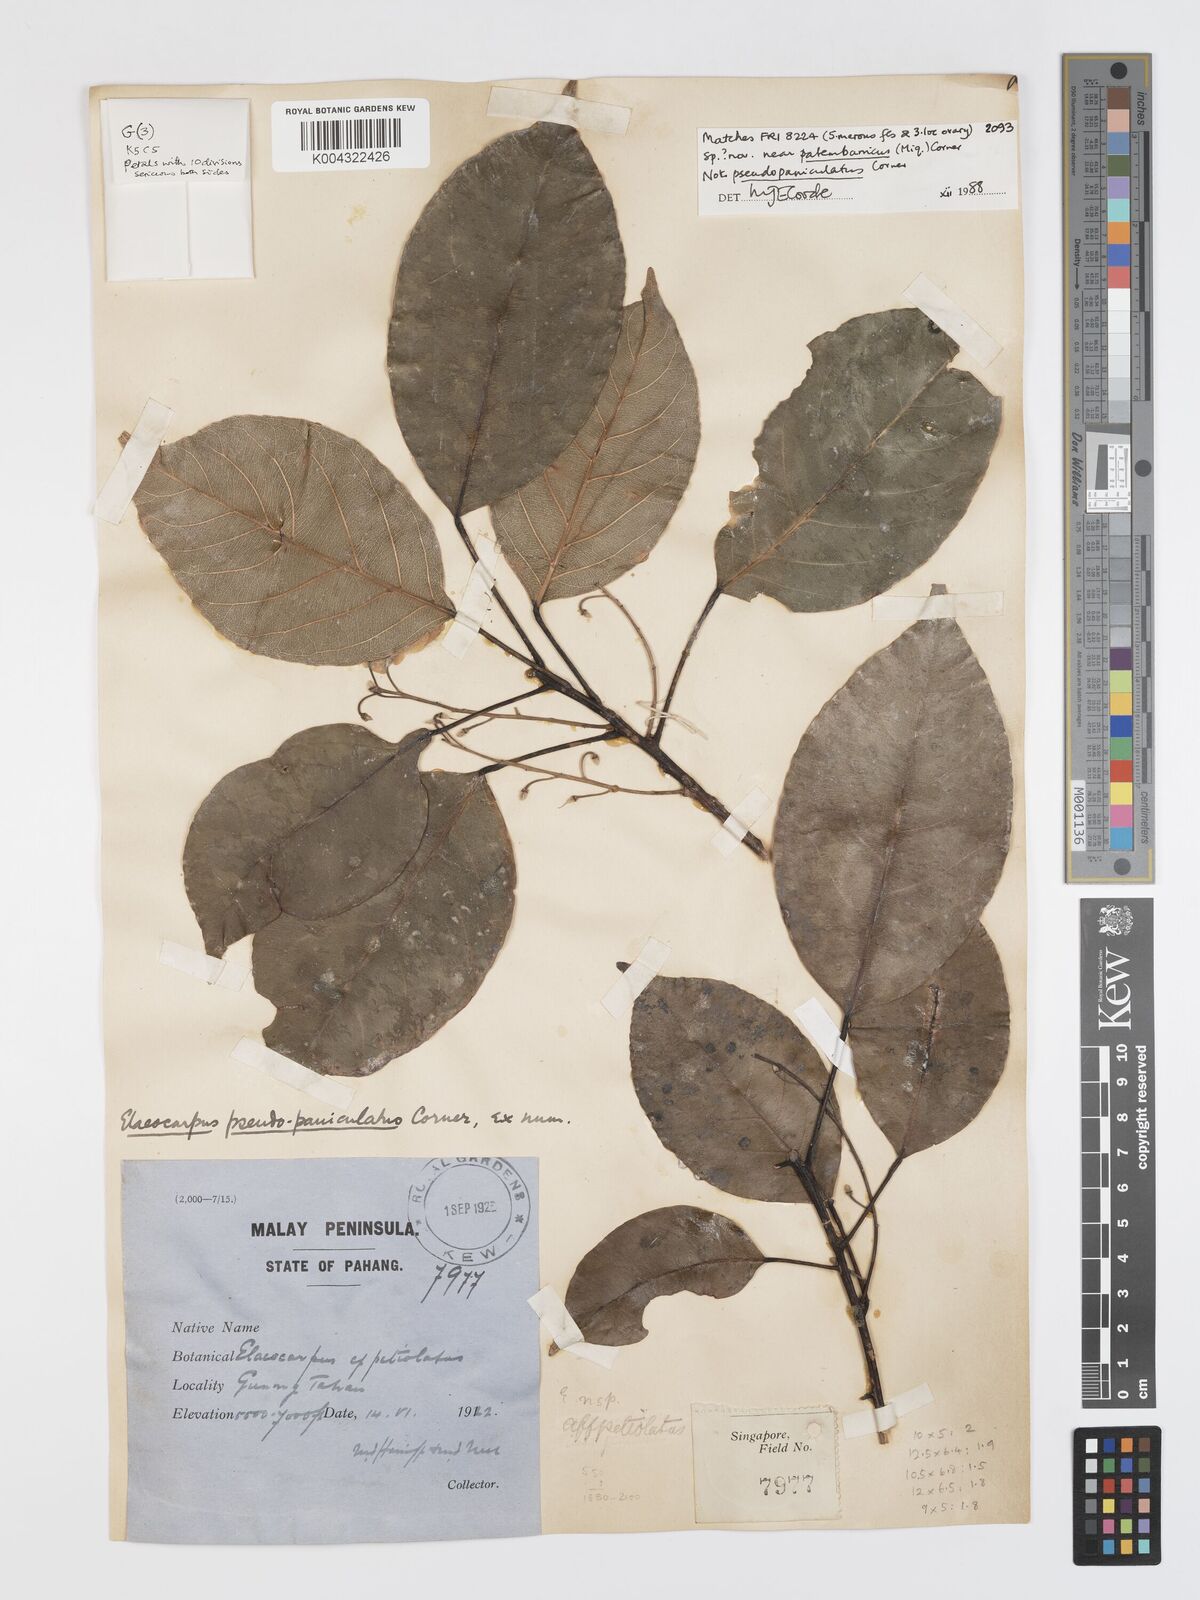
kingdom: Plantae
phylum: Tracheophyta
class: Magnoliopsida
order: Oxalidales
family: Elaeocarpaceae
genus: Elaeocarpus
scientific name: Elaeocarpus
